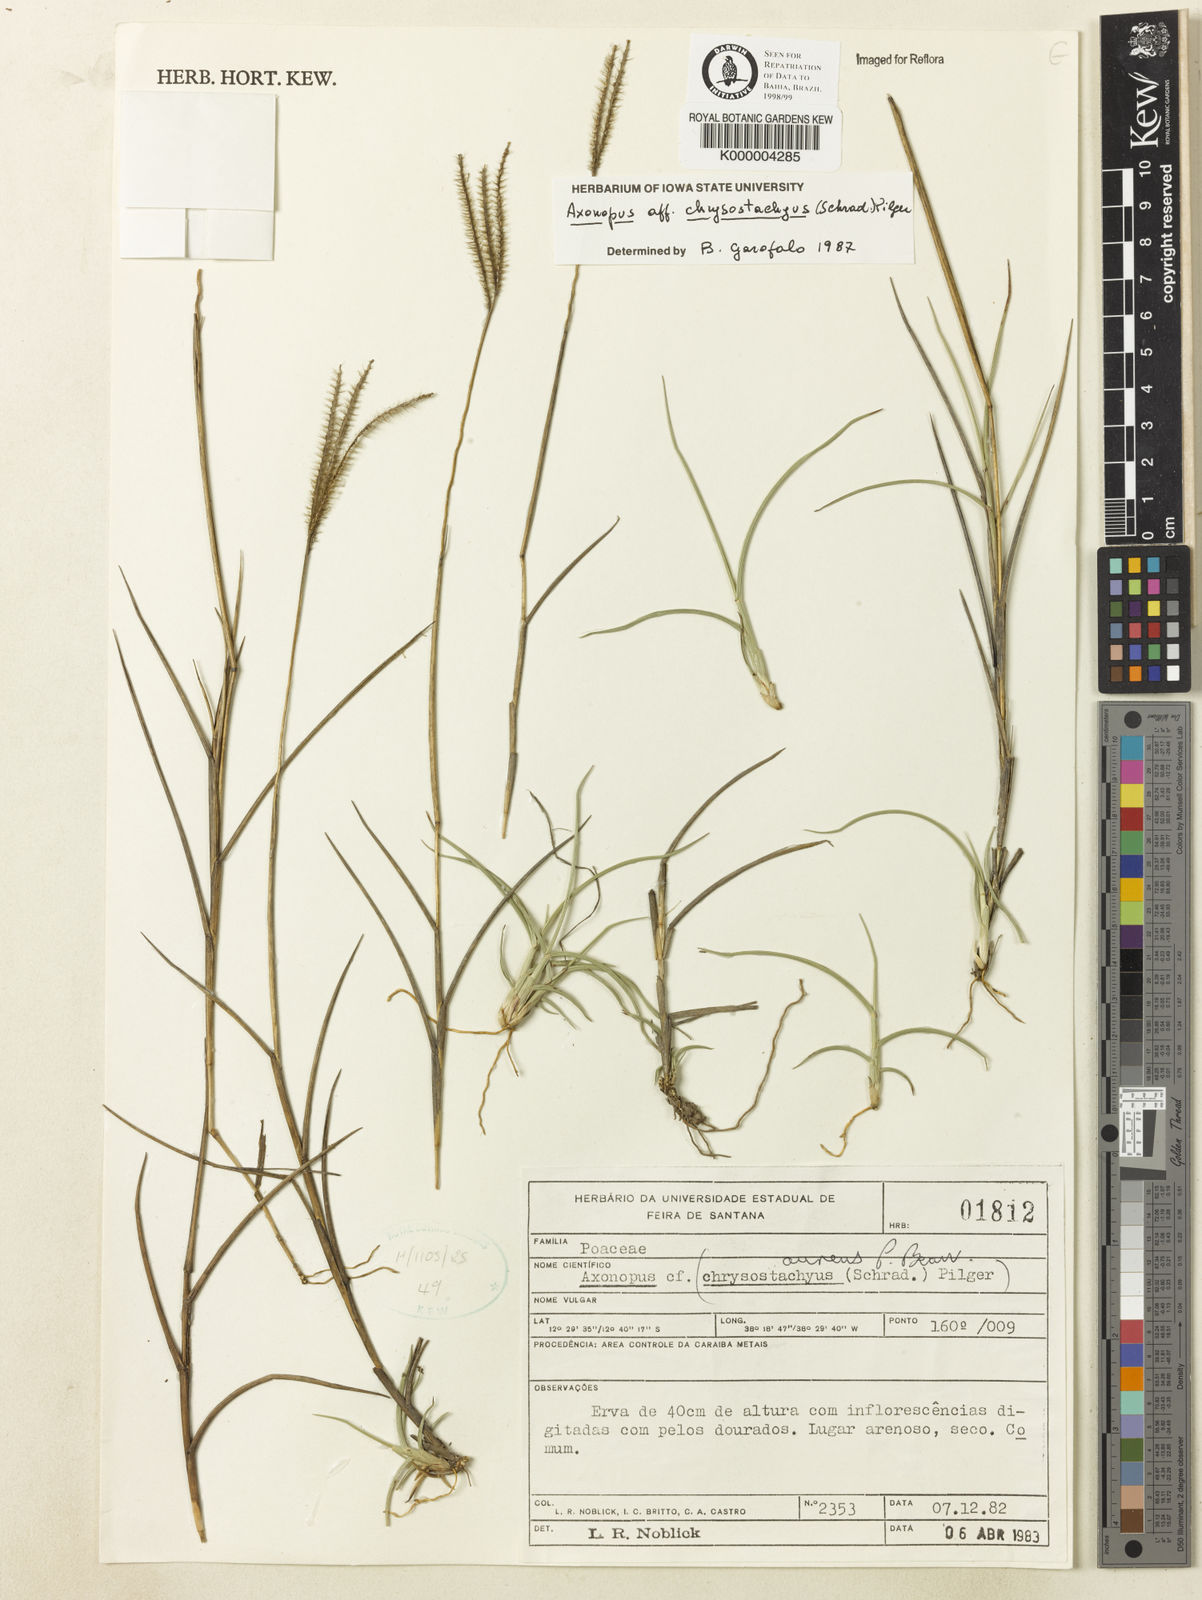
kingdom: Plantae
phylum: Tracheophyta
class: Liliopsida
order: Poales
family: Poaceae
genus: Axonopus
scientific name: Axonopus
